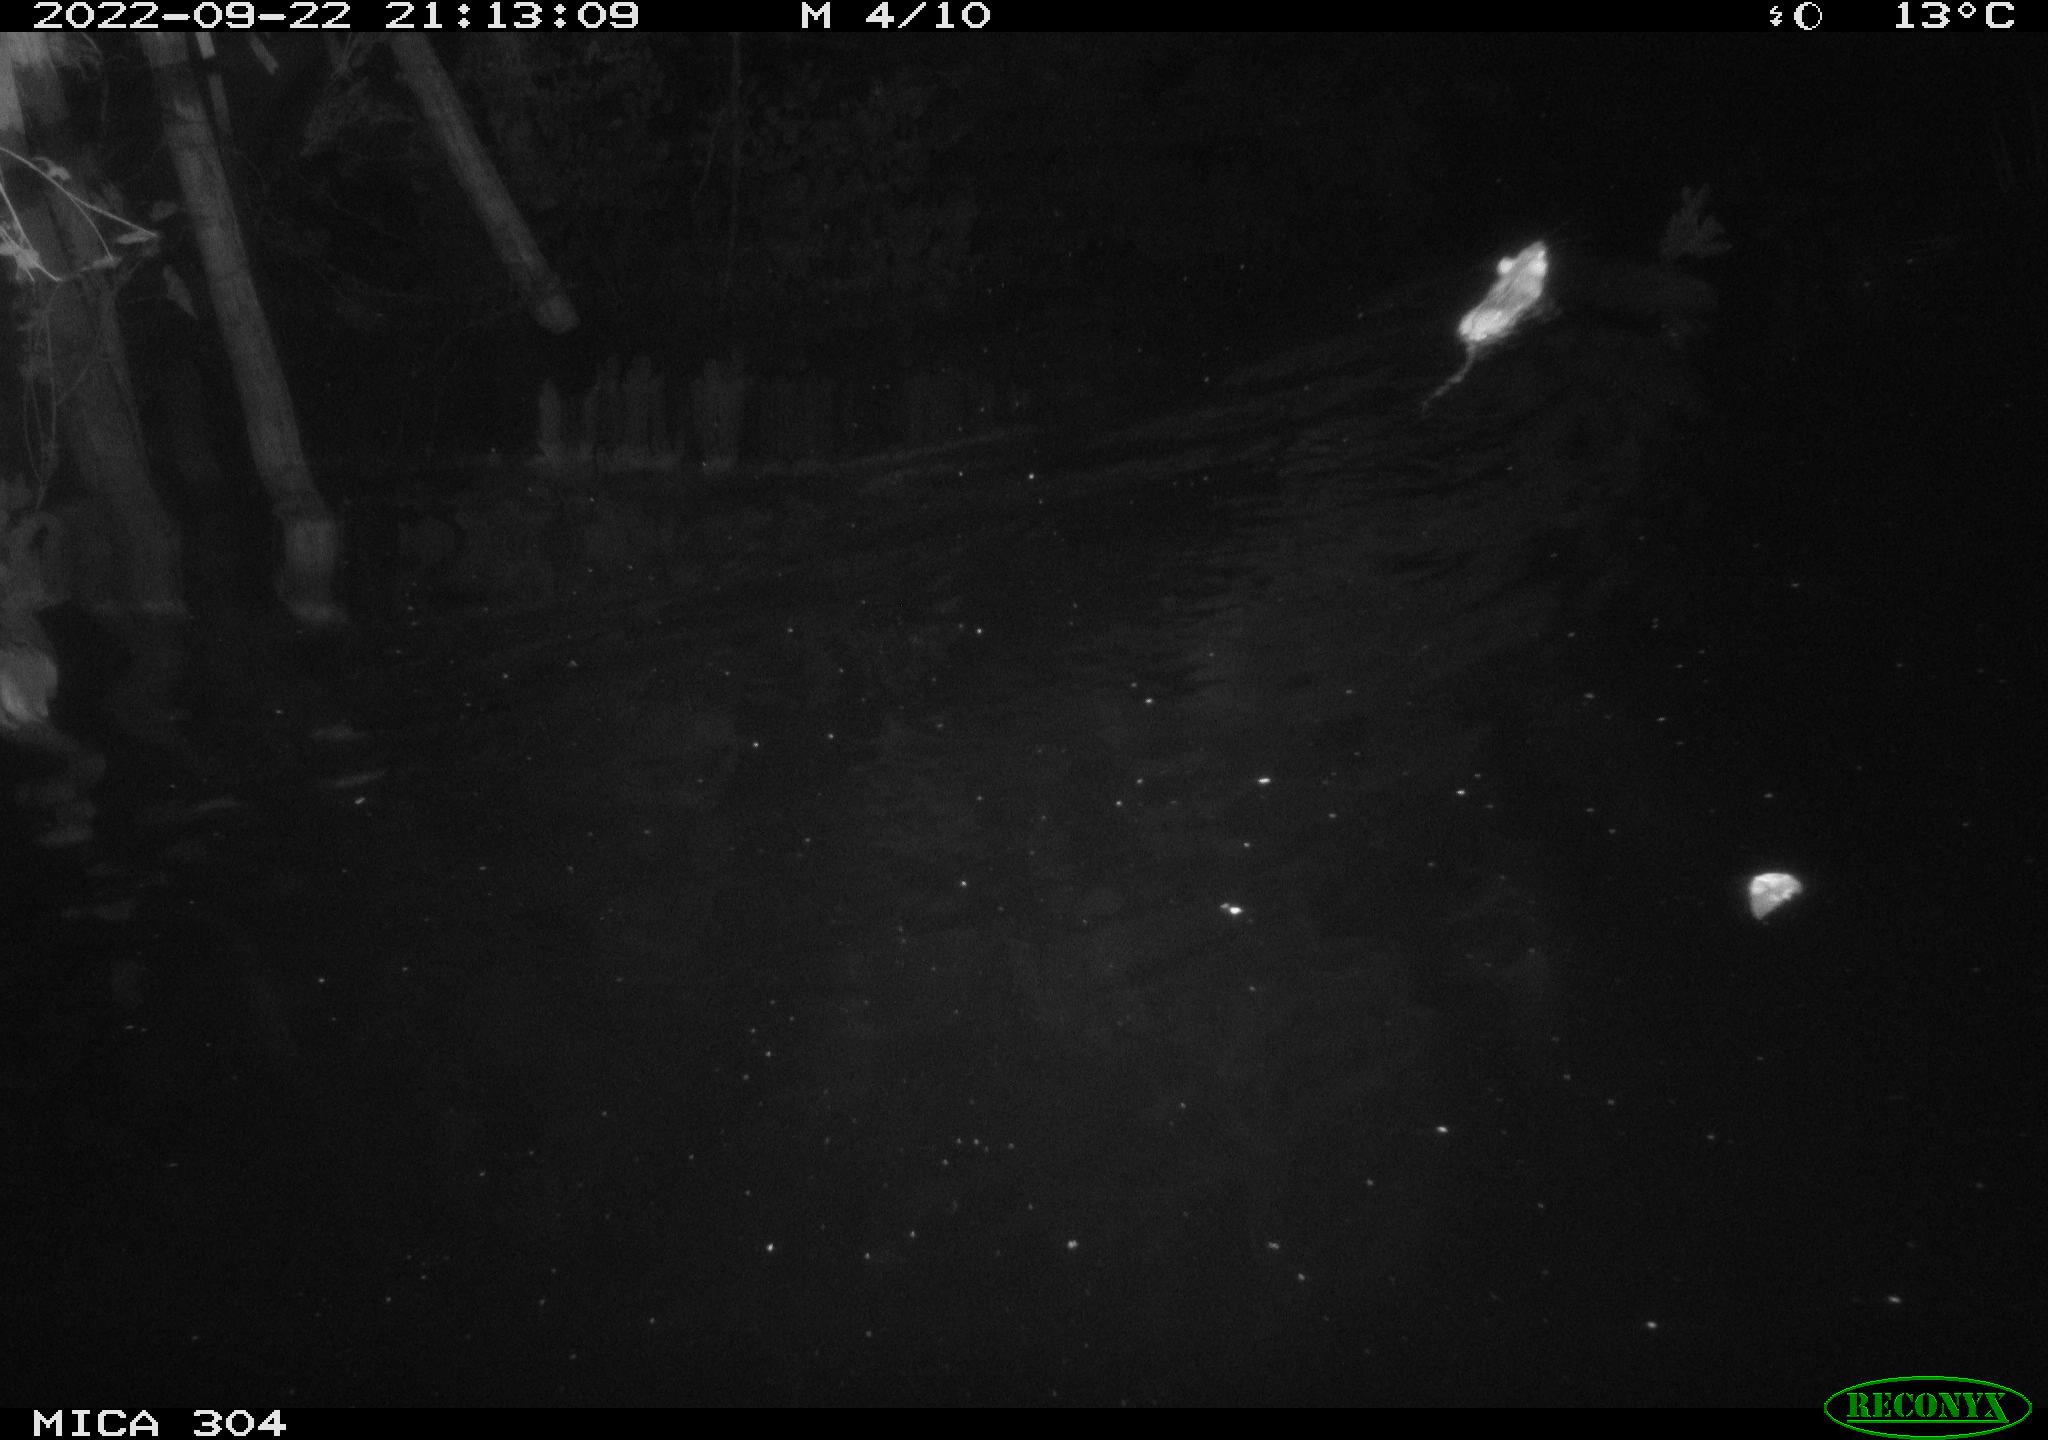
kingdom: Animalia
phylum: Chordata
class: Mammalia
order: Rodentia
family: Muridae
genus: Rattus
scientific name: Rattus norvegicus
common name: Brown rat
